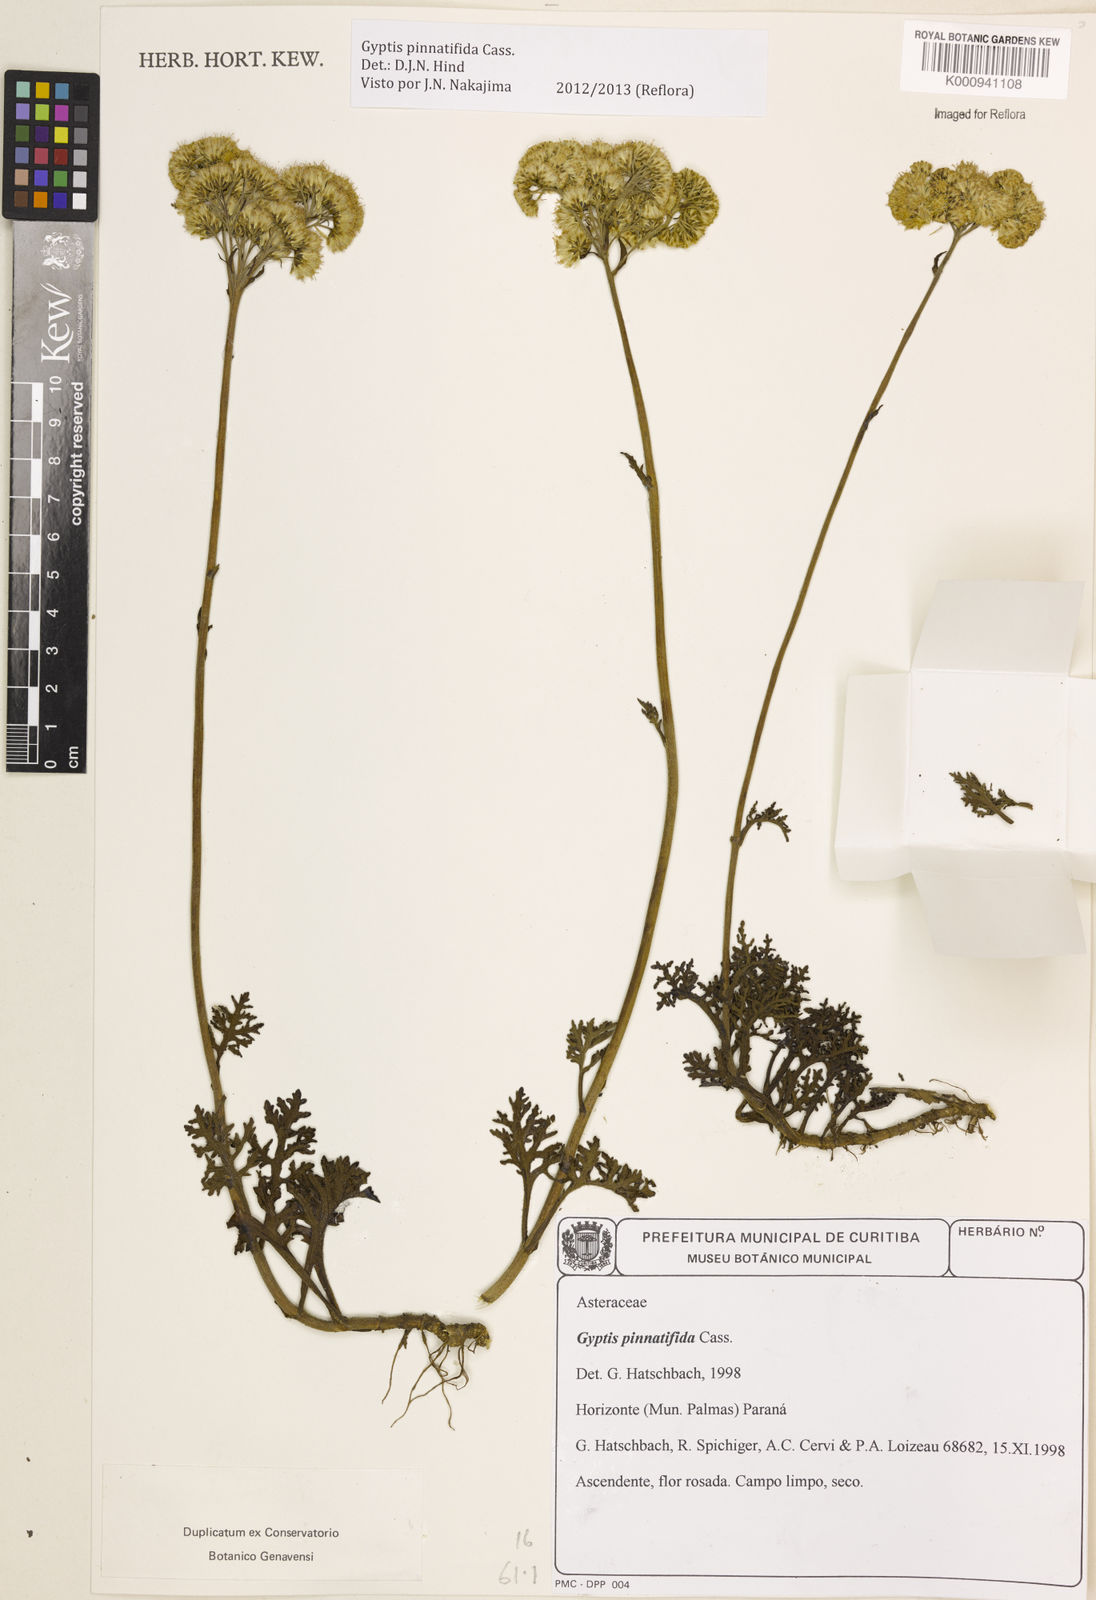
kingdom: Plantae
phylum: Tracheophyta
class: Magnoliopsida
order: Asterales
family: Asteraceae
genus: Gyptis
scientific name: Gyptis pinnatifida
